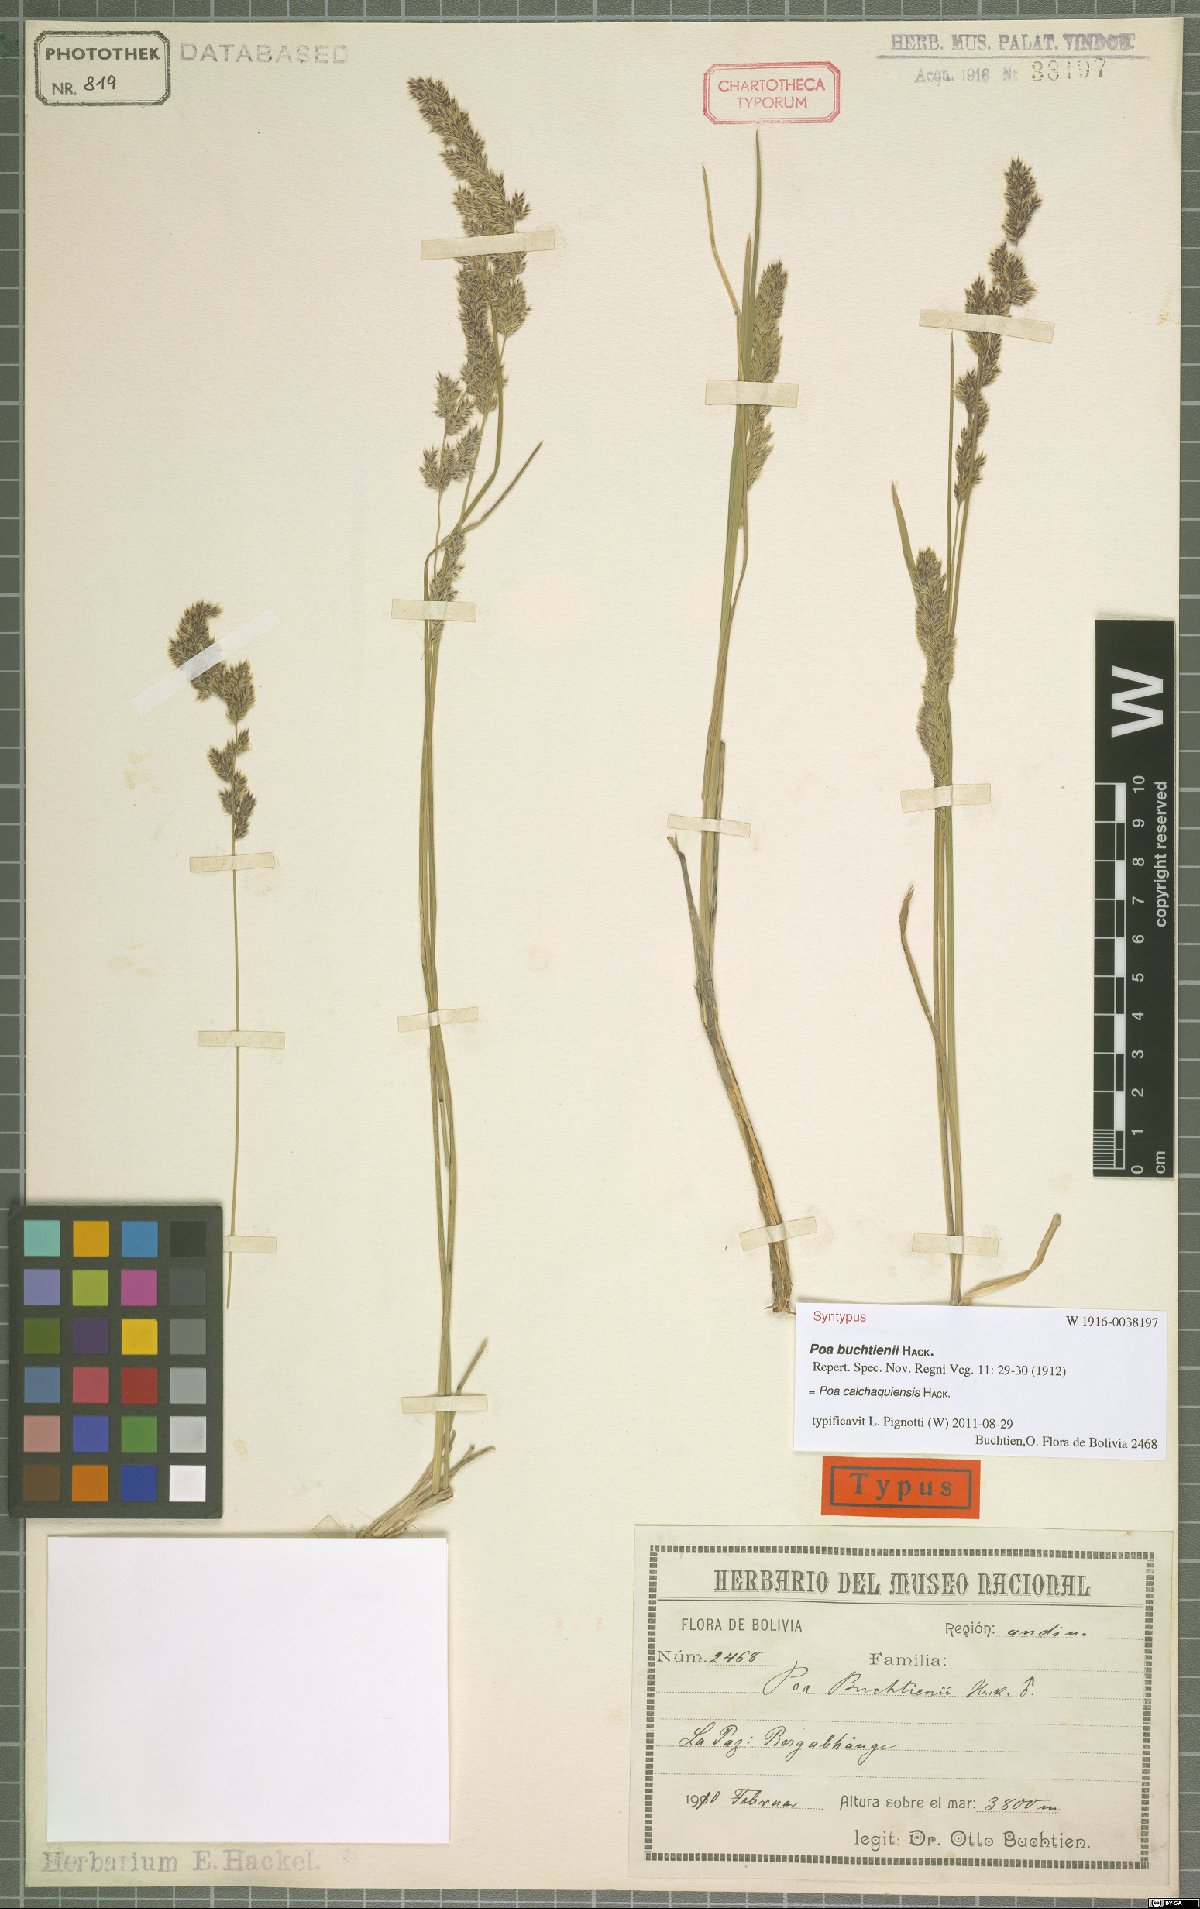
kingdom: Plantae
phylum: Tracheophyta
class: Liliopsida
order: Poales
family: Poaceae
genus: Poa
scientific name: Poa calchaquiensis
